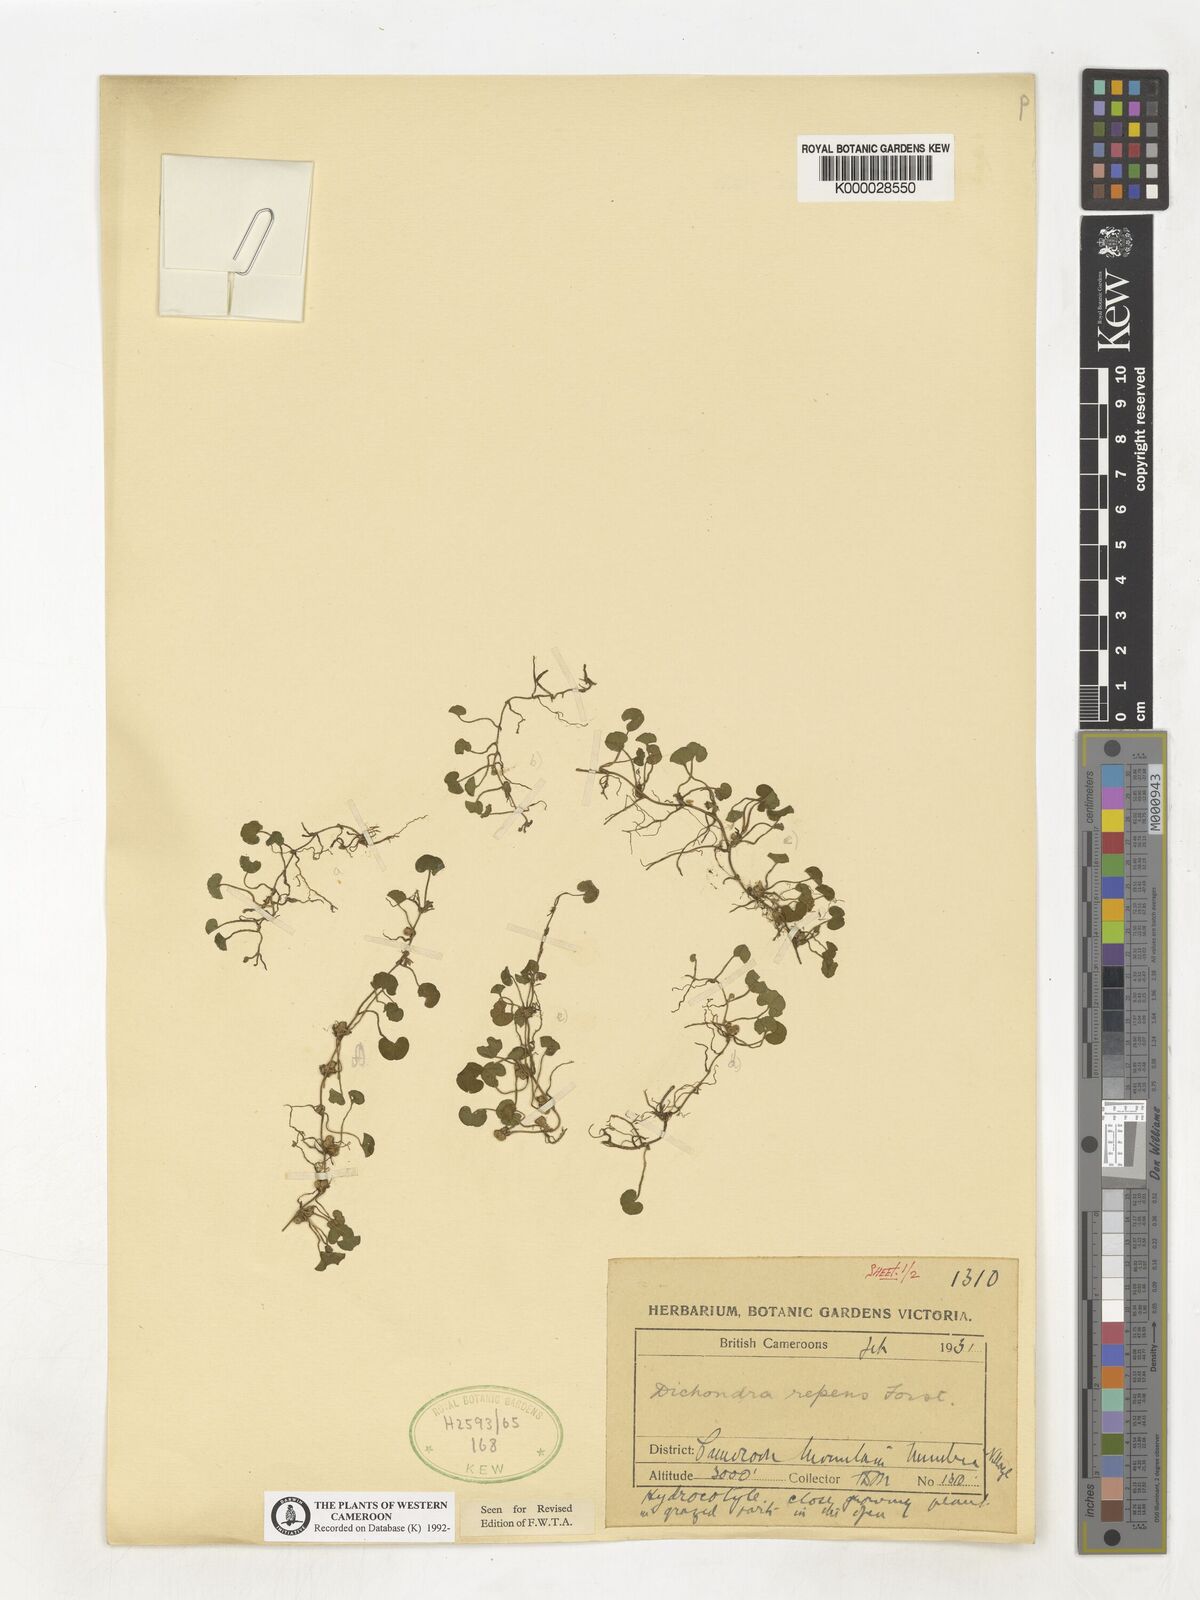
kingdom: Plantae
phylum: Tracheophyta
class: Magnoliopsida
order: Solanales
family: Convolvulaceae
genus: Dichondra
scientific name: Dichondra repens
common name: Kidneyweed
